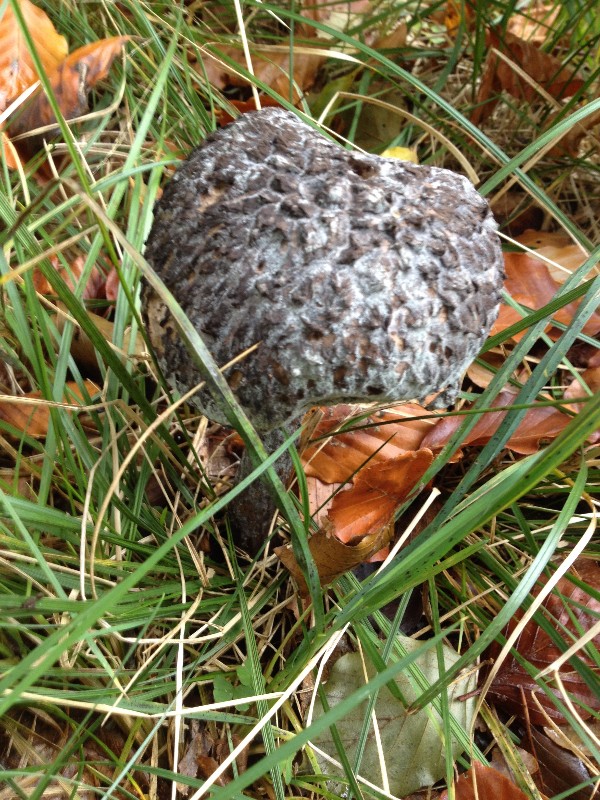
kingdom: Fungi
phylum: Basidiomycota
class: Agaricomycetes
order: Boletales
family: Boletaceae
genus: Strobilomyces
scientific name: Strobilomyces strobilaceus
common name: koglerørhat
